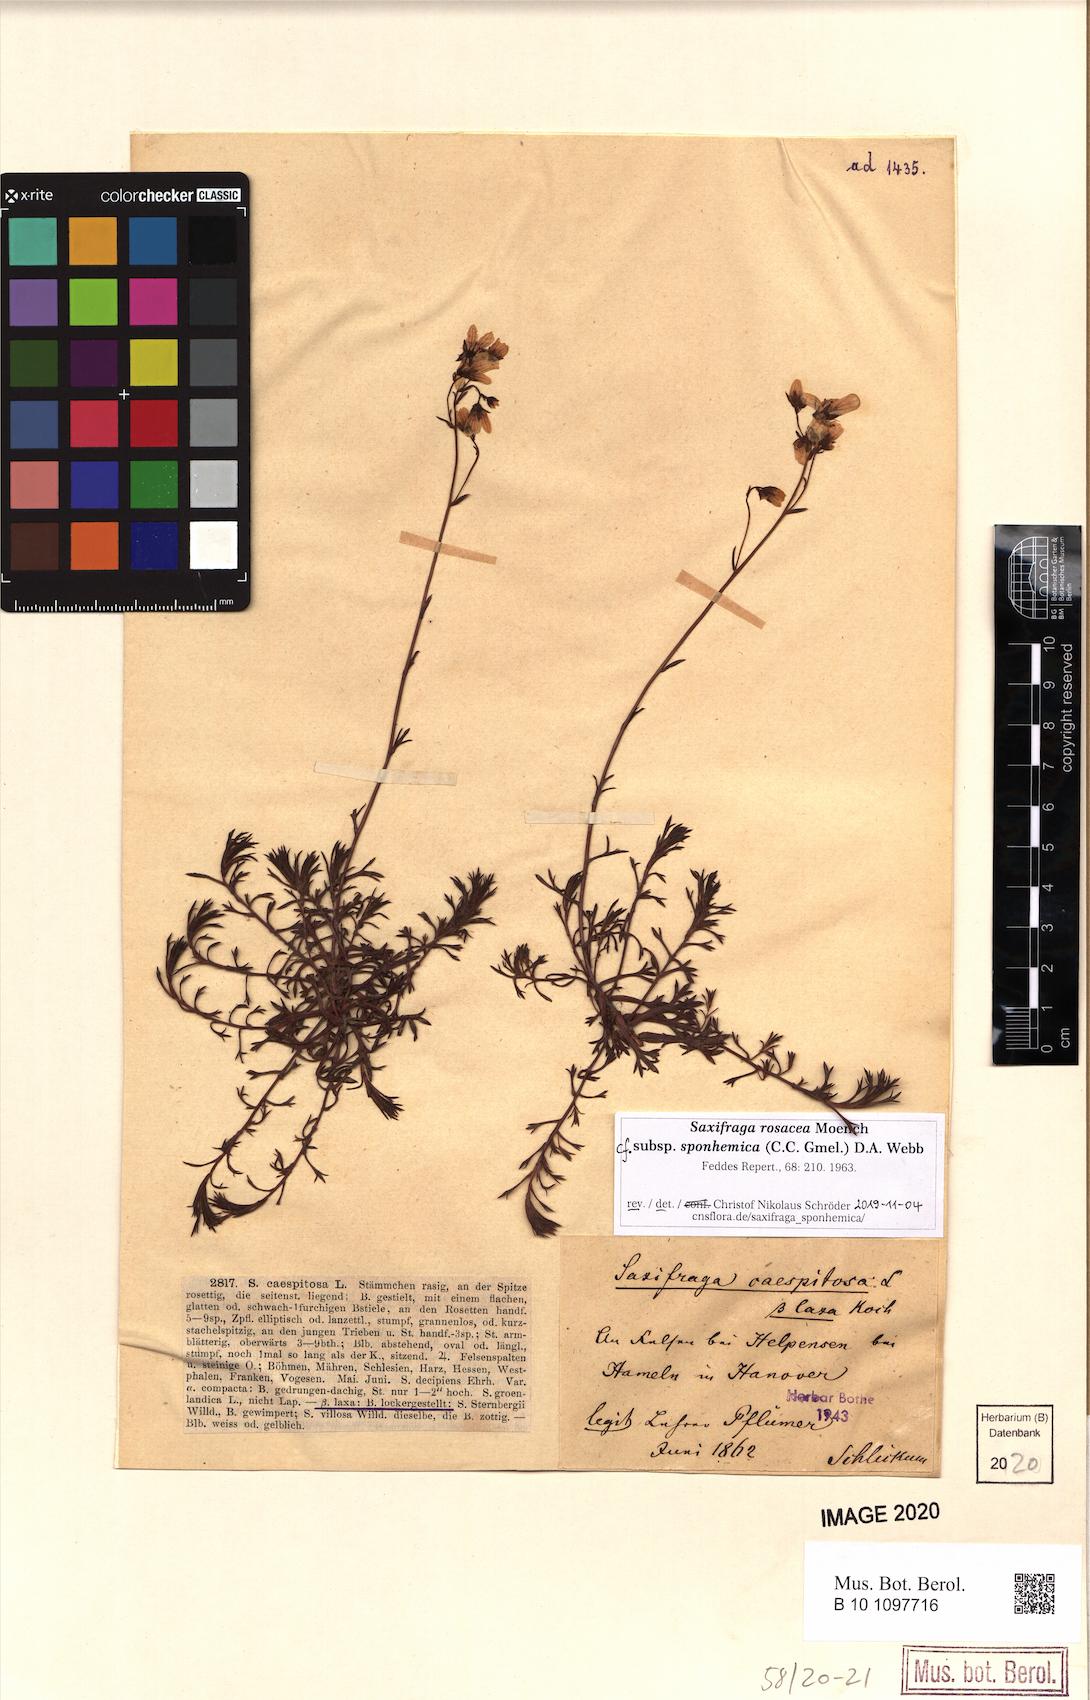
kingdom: Plantae
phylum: Tracheophyta
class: Magnoliopsida
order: Saxifragales
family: Saxifragaceae
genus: Saxifraga
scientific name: Saxifraga rosacea
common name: Irish saxifrage
